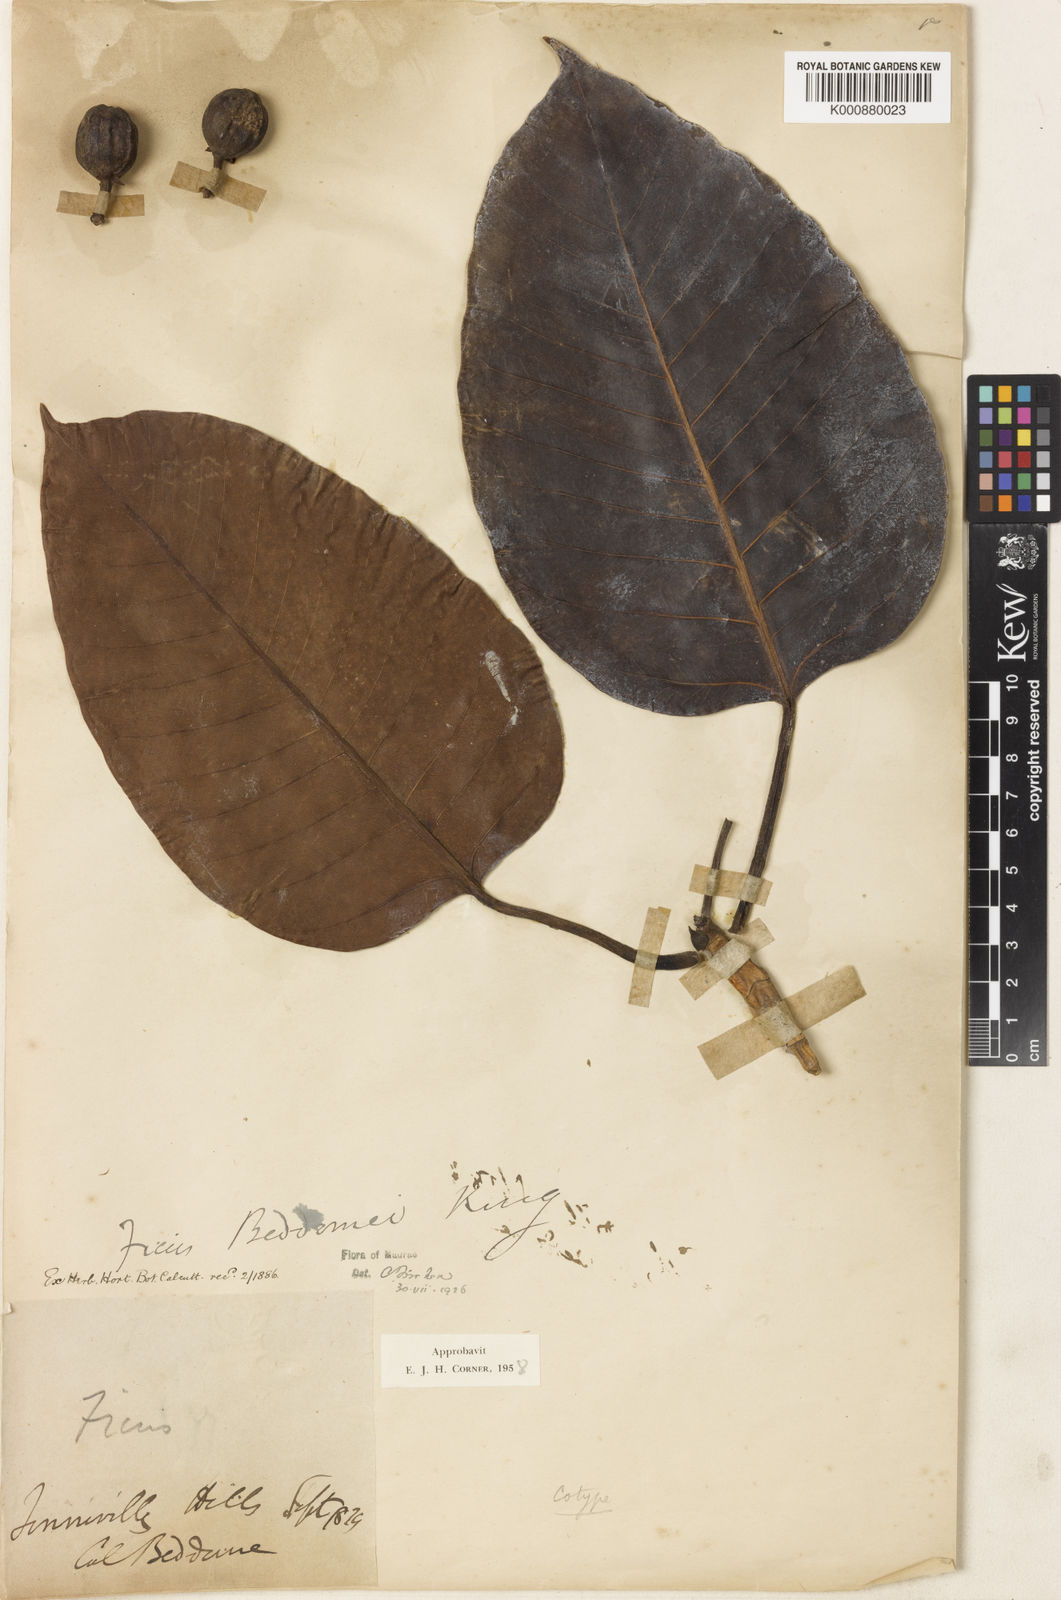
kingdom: Plantae
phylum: Tracheophyta
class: Magnoliopsida
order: Rosales
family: Moraceae
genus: Ficus
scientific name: Ficus beddomei
